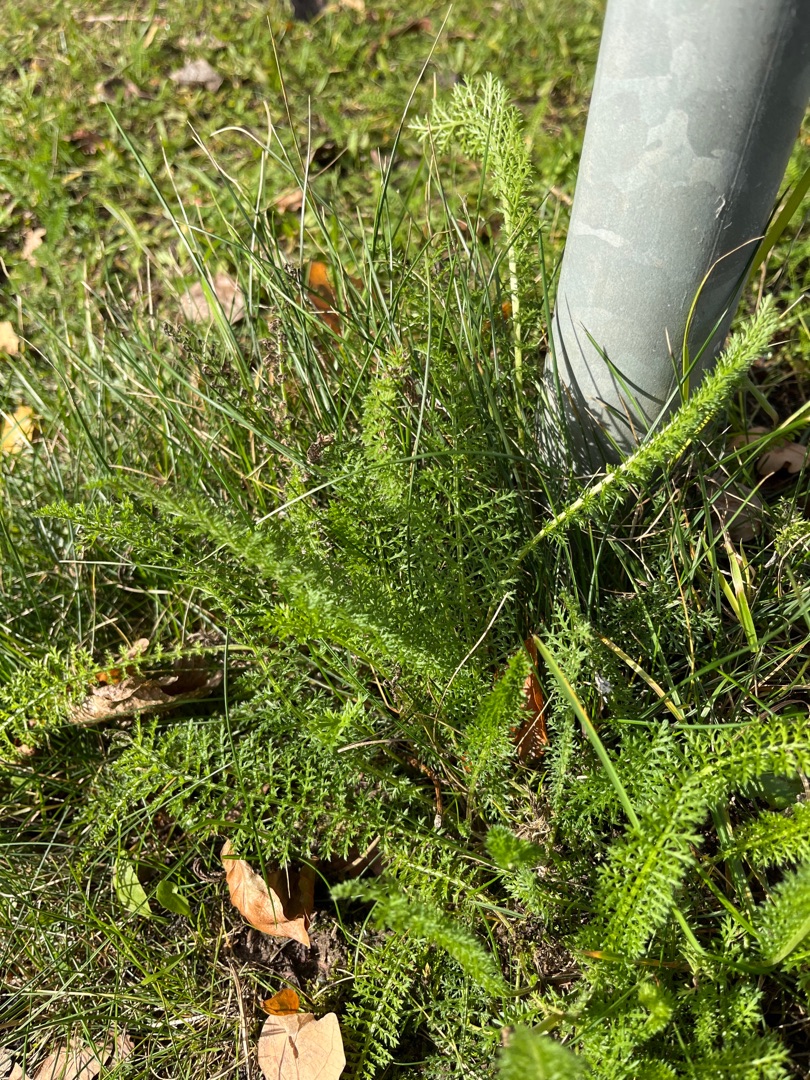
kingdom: Plantae
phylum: Tracheophyta
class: Magnoliopsida
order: Asterales
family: Asteraceae
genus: Achillea
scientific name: Achillea millefolium
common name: Almindelig røllike
